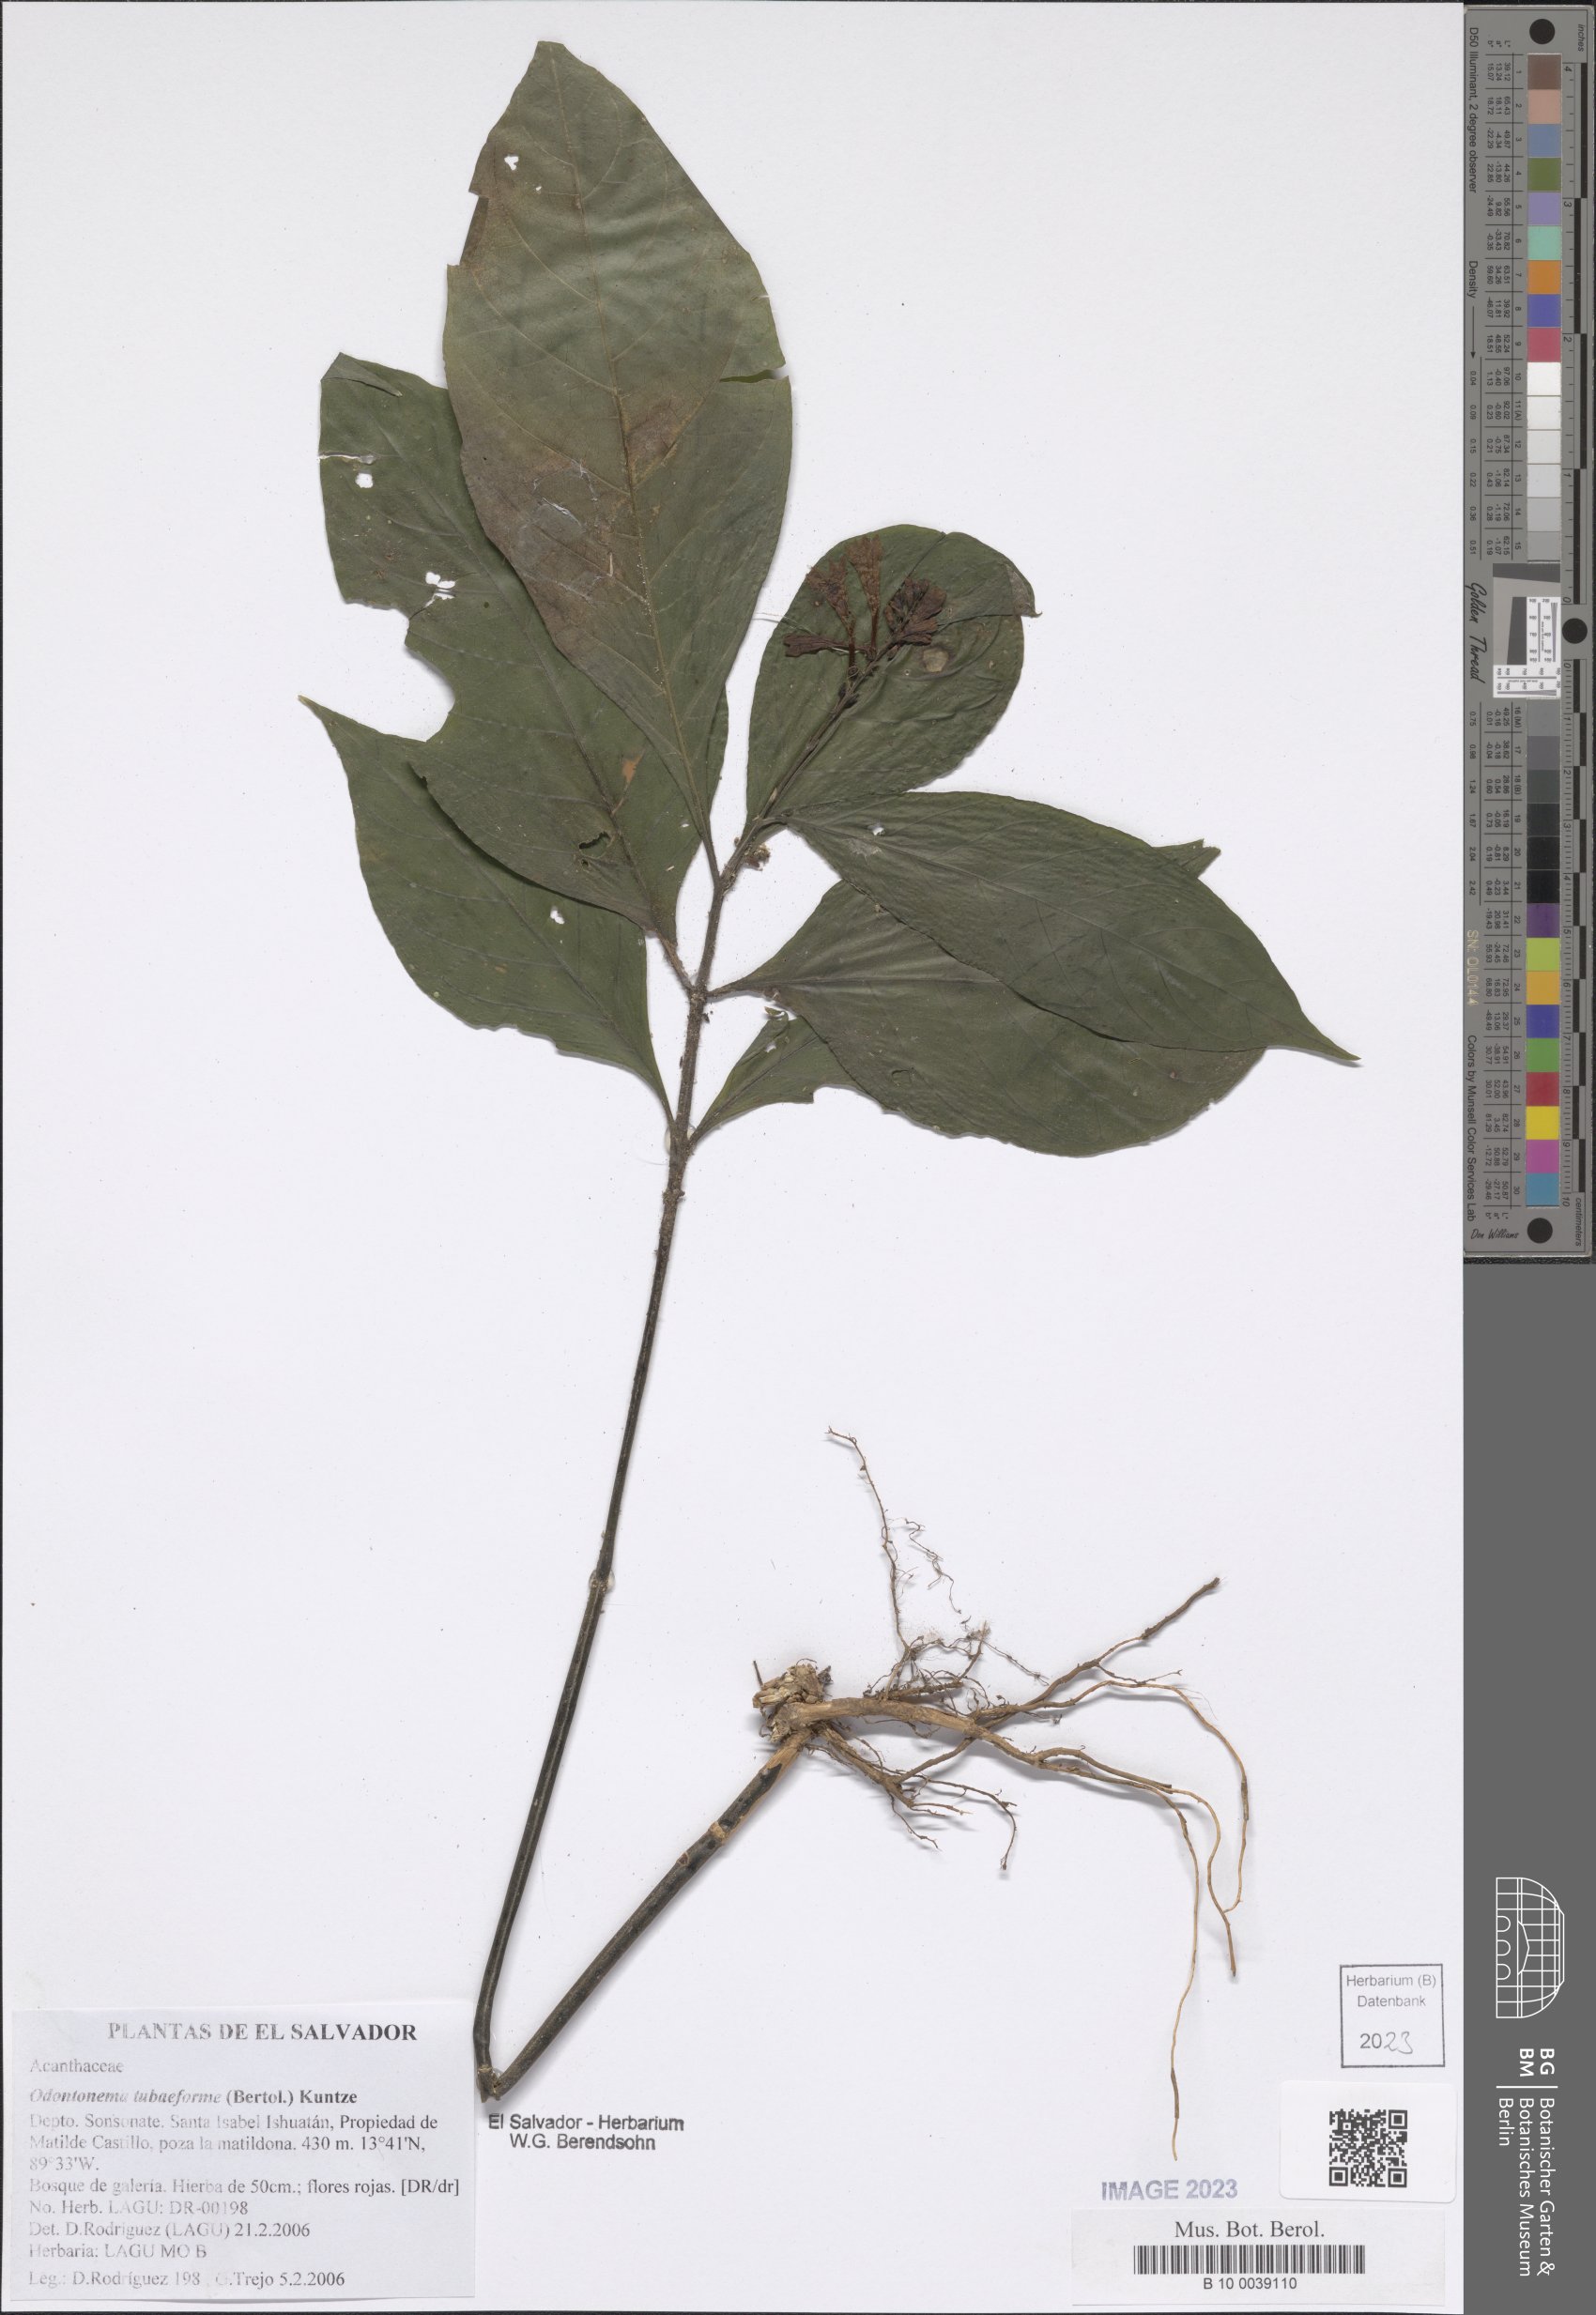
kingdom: Plantae
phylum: Tracheophyta
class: Magnoliopsida
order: Lamiales
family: Acanthaceae
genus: Odontonema
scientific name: Odontonema tubaeforme
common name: Firespike
